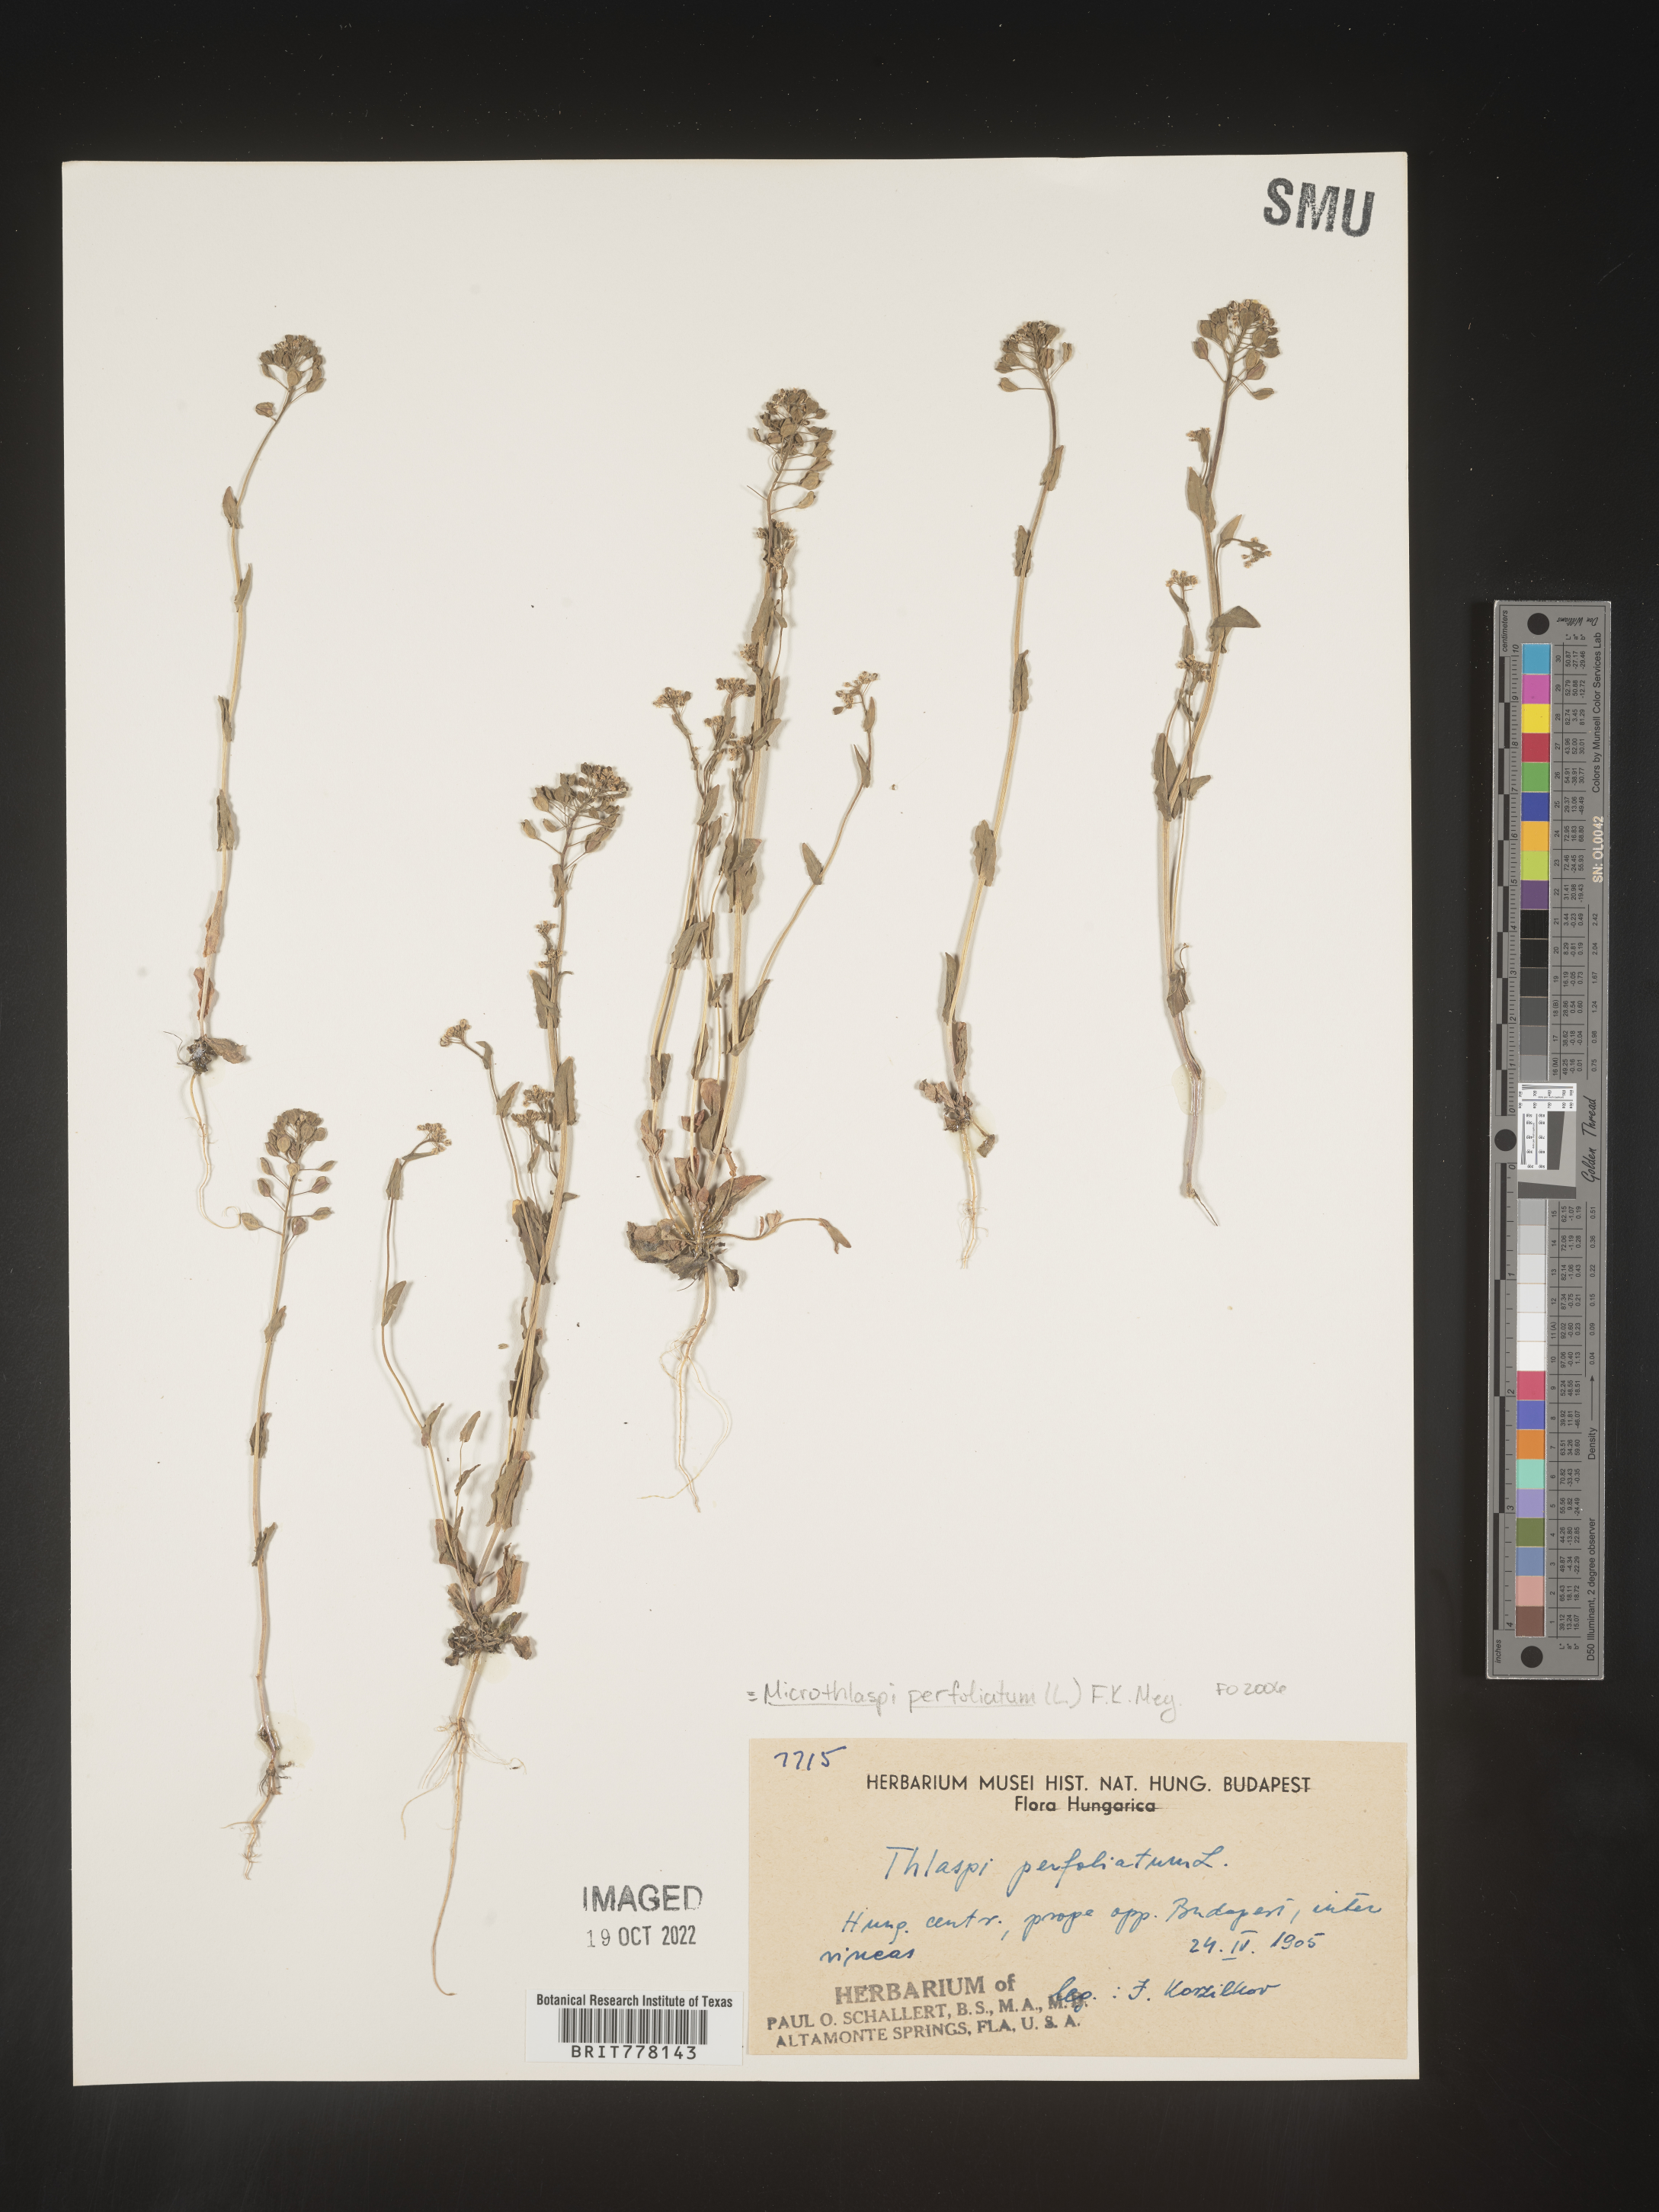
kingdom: Plantae
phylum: Tracheophyta
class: Magnoliopsida
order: Brassicales
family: Brassicaceae
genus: Noccaea
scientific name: Noccaea
